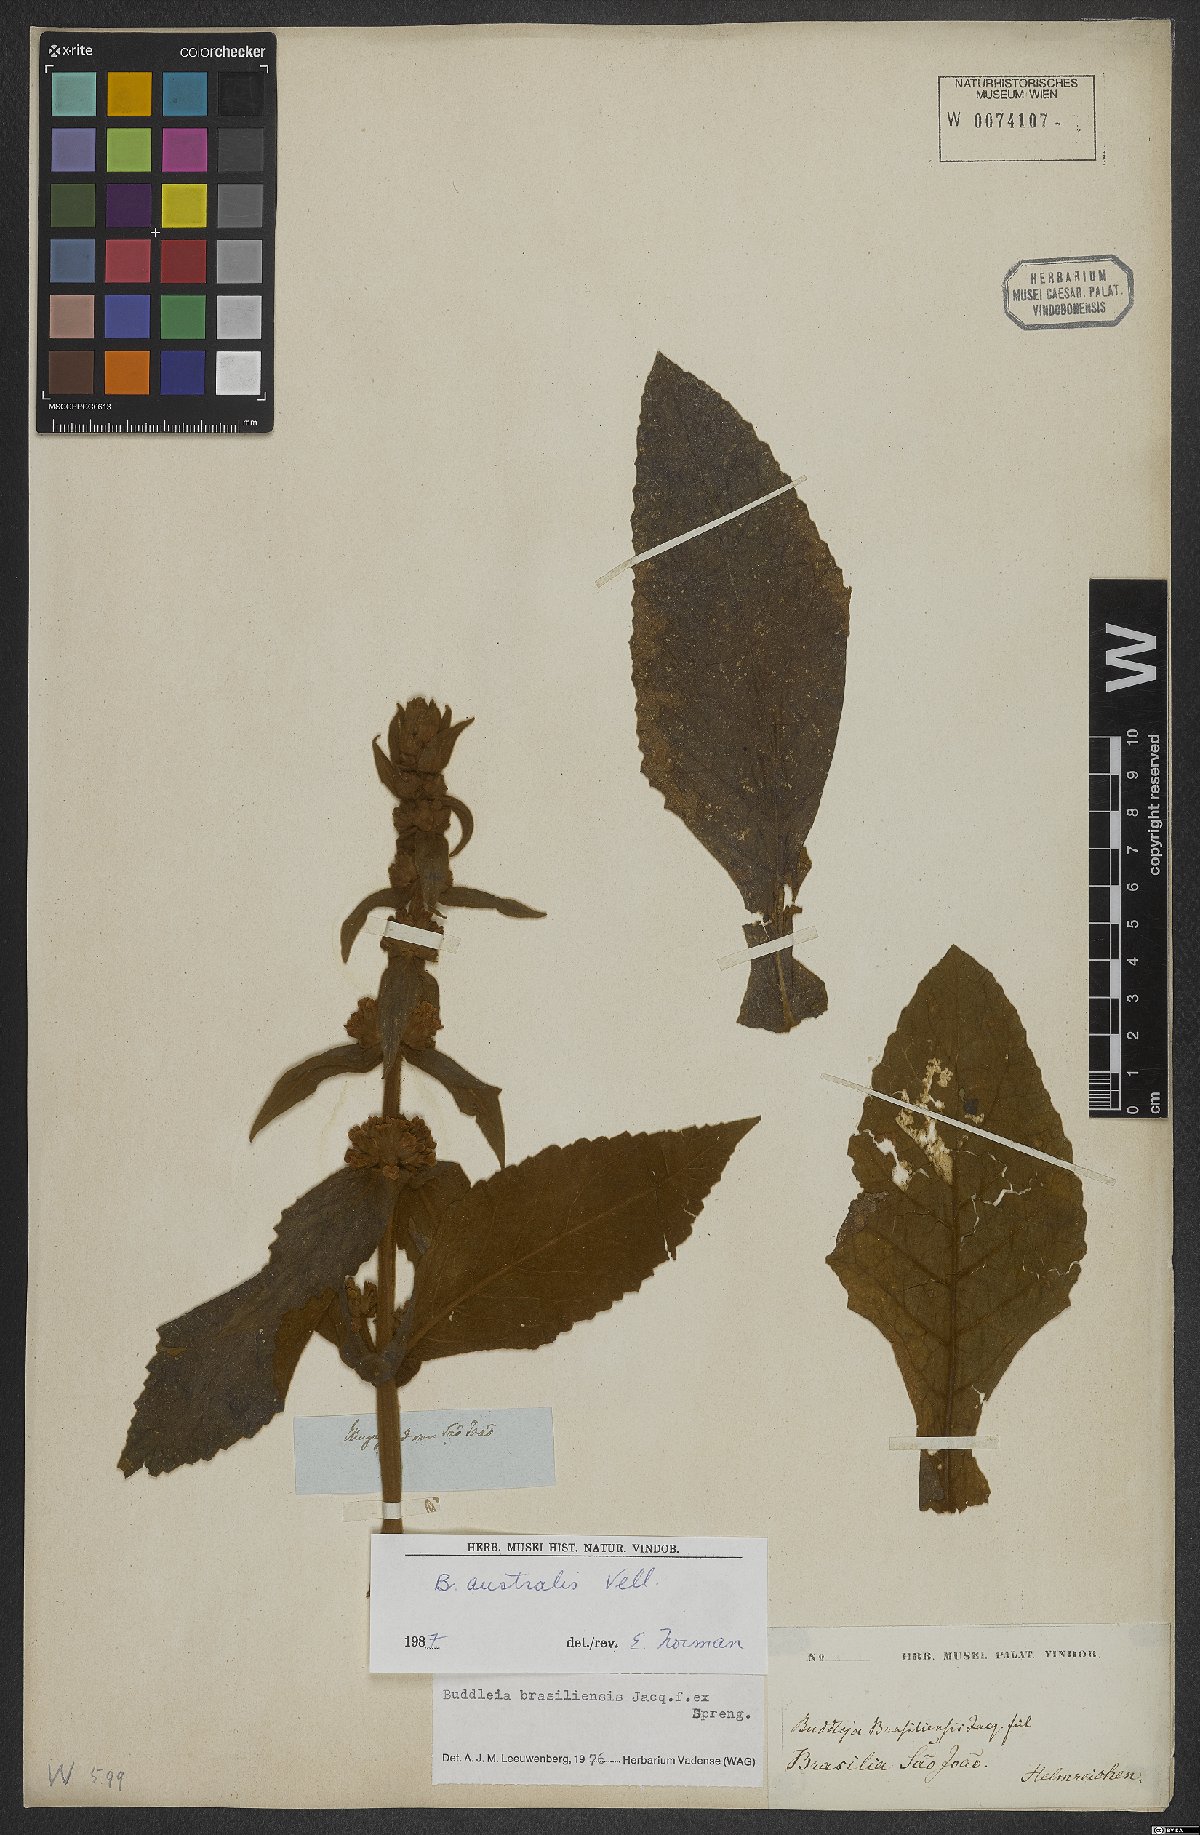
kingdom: Plantae
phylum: Tracheophyta
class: Magnoliopsida
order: Lamiales
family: Scrophulariaceae
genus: Buddleja
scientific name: Buddleja stachyoides
